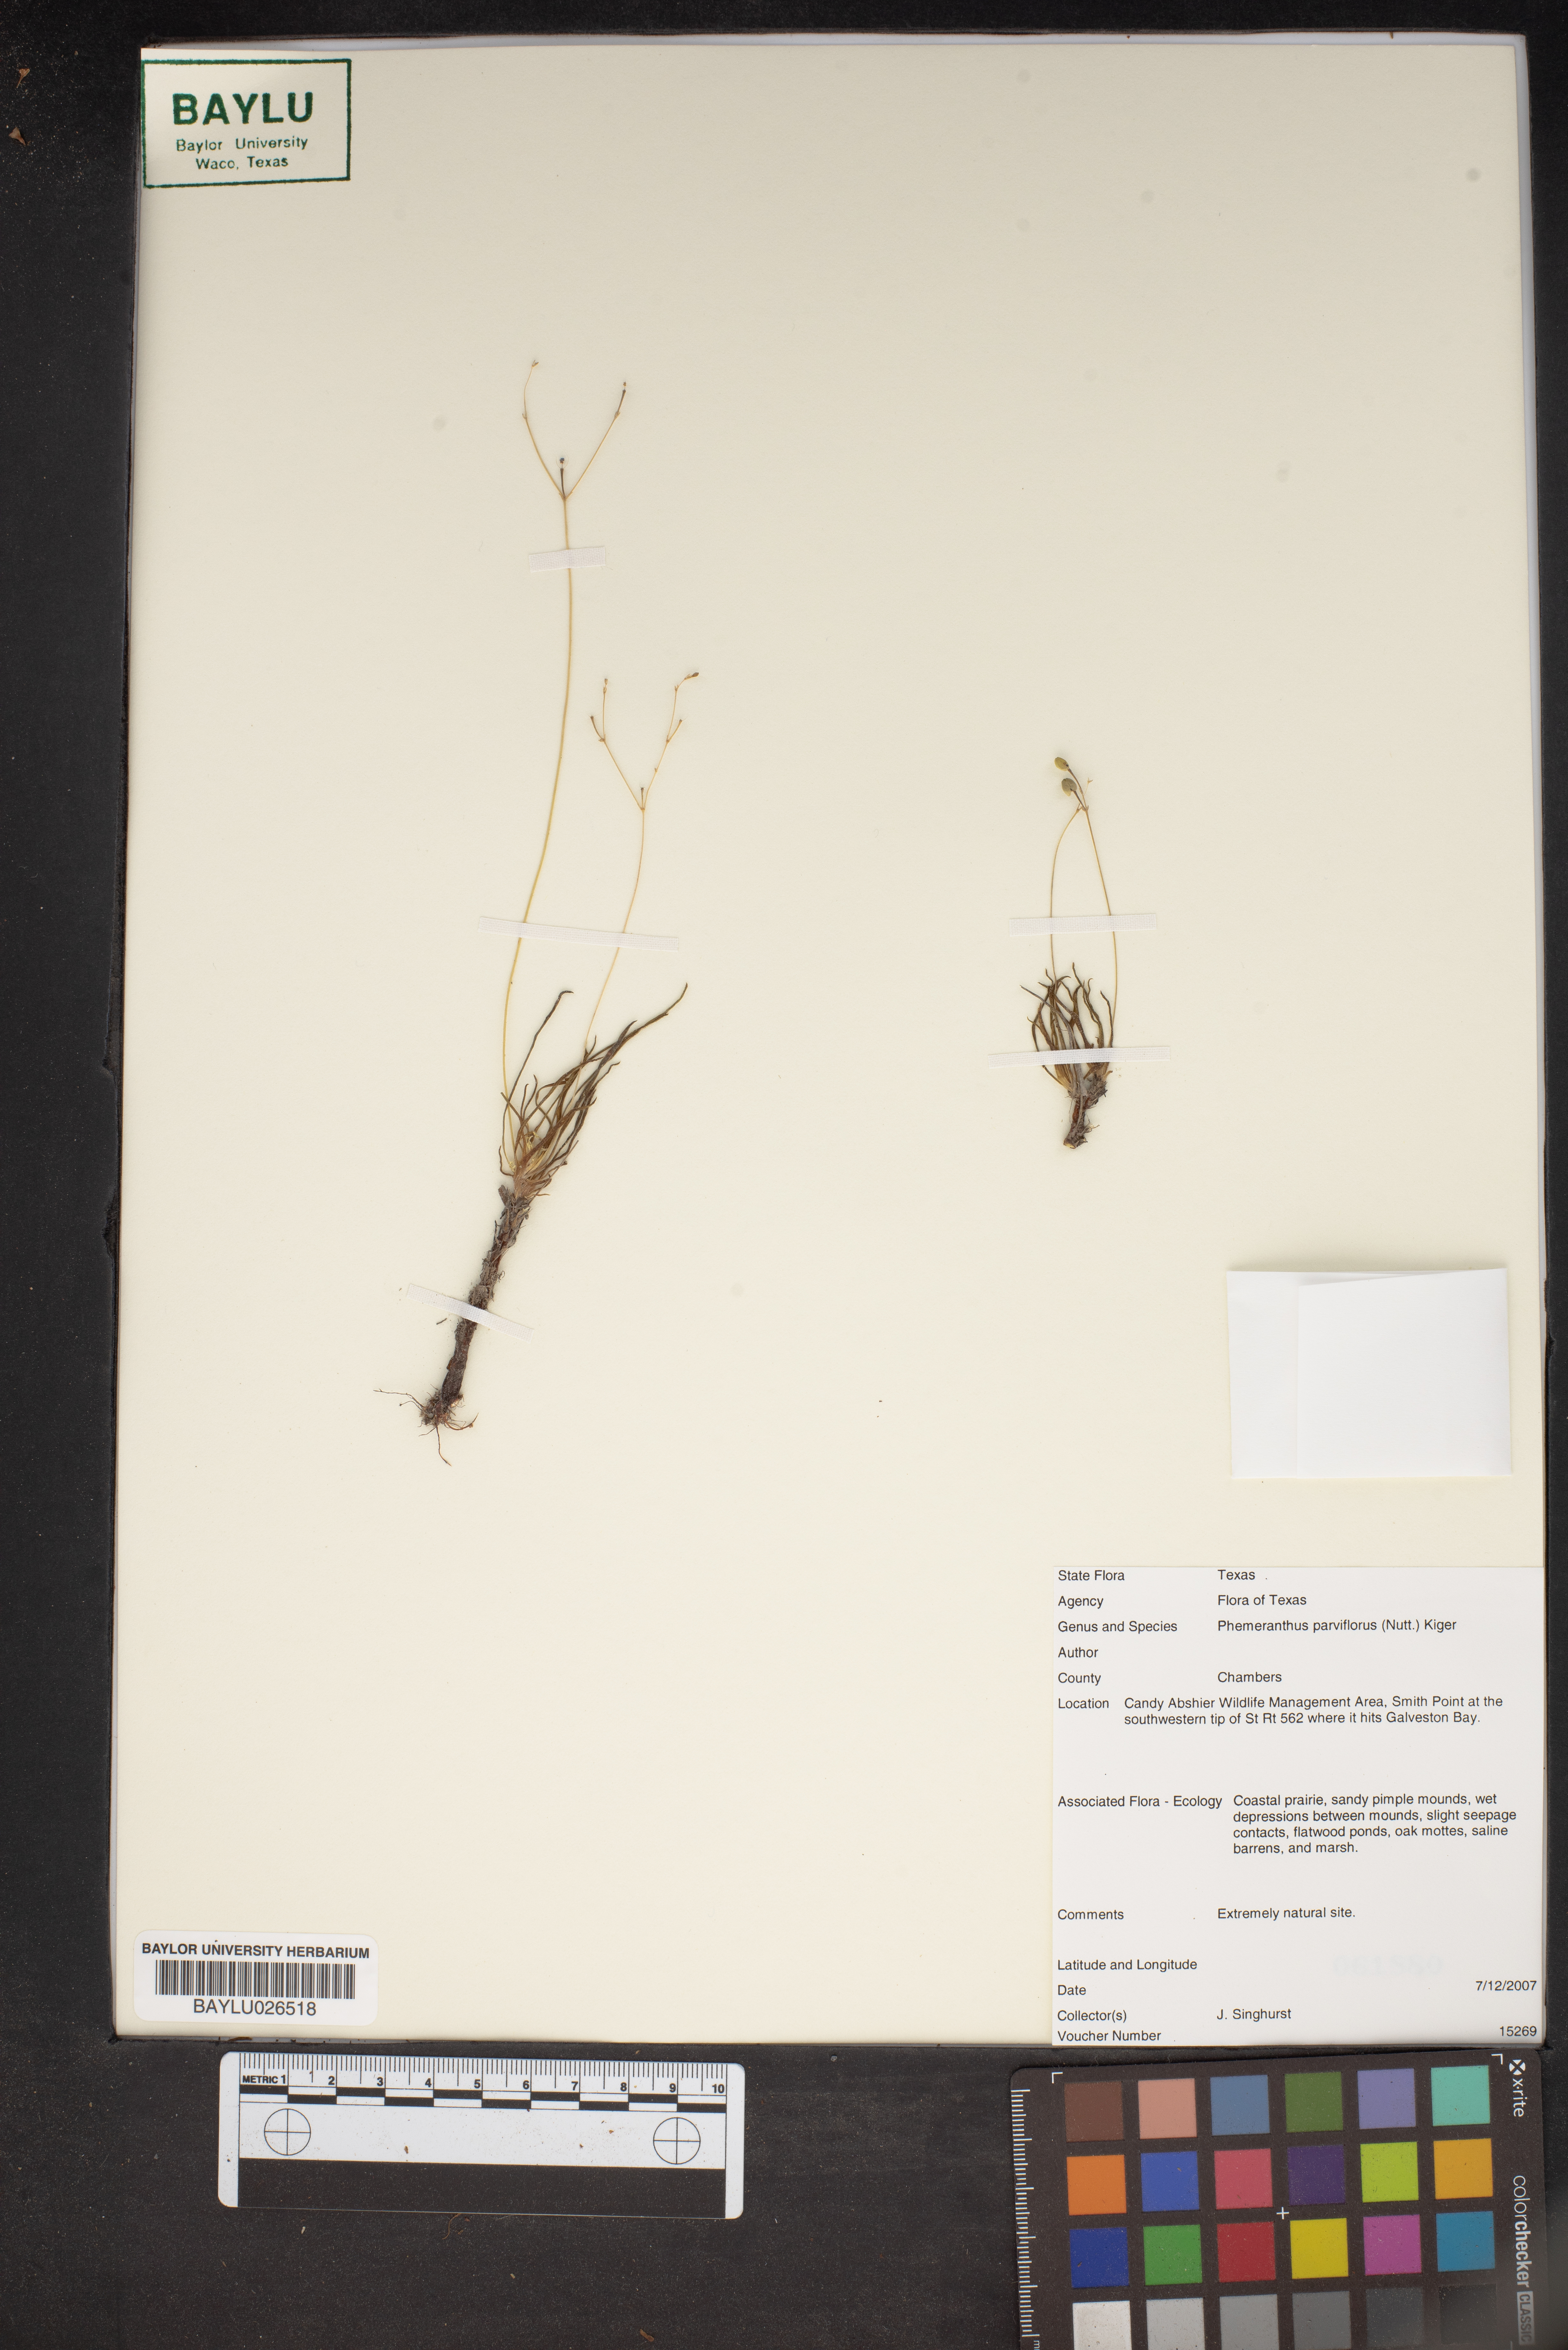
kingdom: Plantae
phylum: Tracheophyta
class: Magnoliopsida
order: Caryophyllales
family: Montiaceae
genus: Phemeranthus
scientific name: Phemeranthus parviflorus
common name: Sunbright
